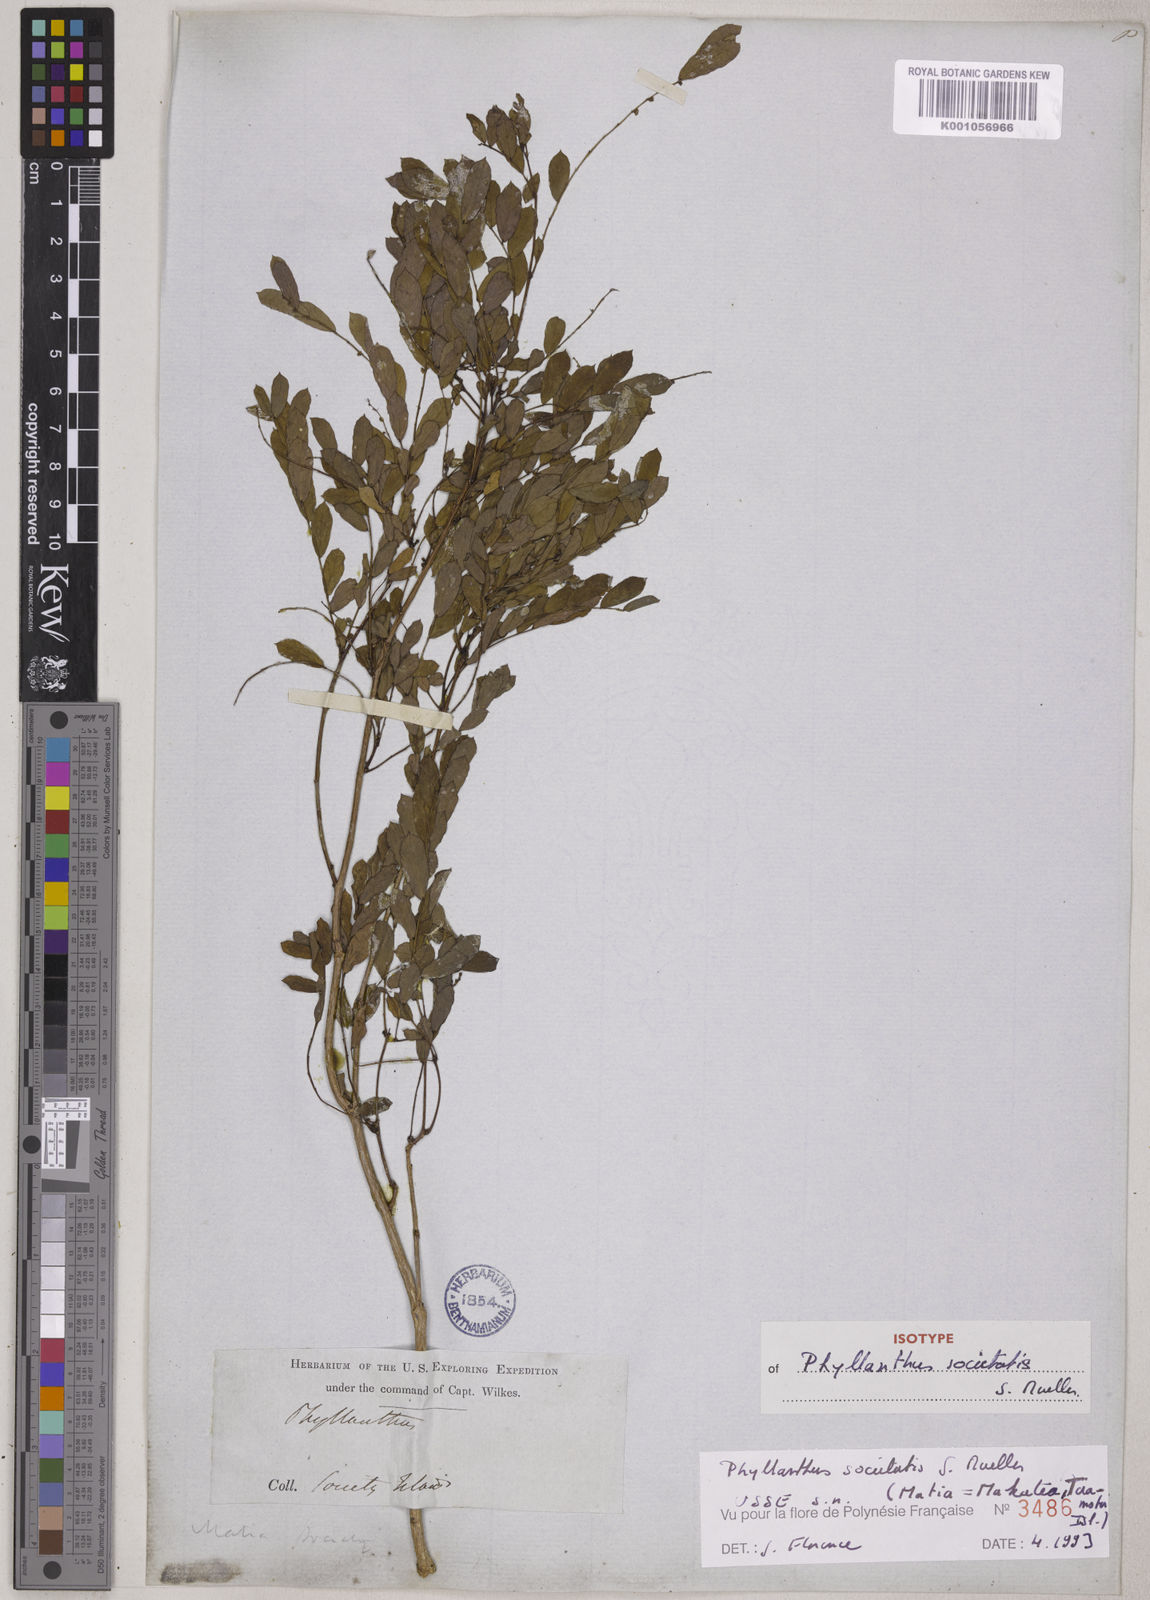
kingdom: Plantae
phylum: Tracheophyta
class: Magnoliopsida
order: Malpighiales
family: Phyllanthaceae
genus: Phyllanthus
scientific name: Phyllanthus
